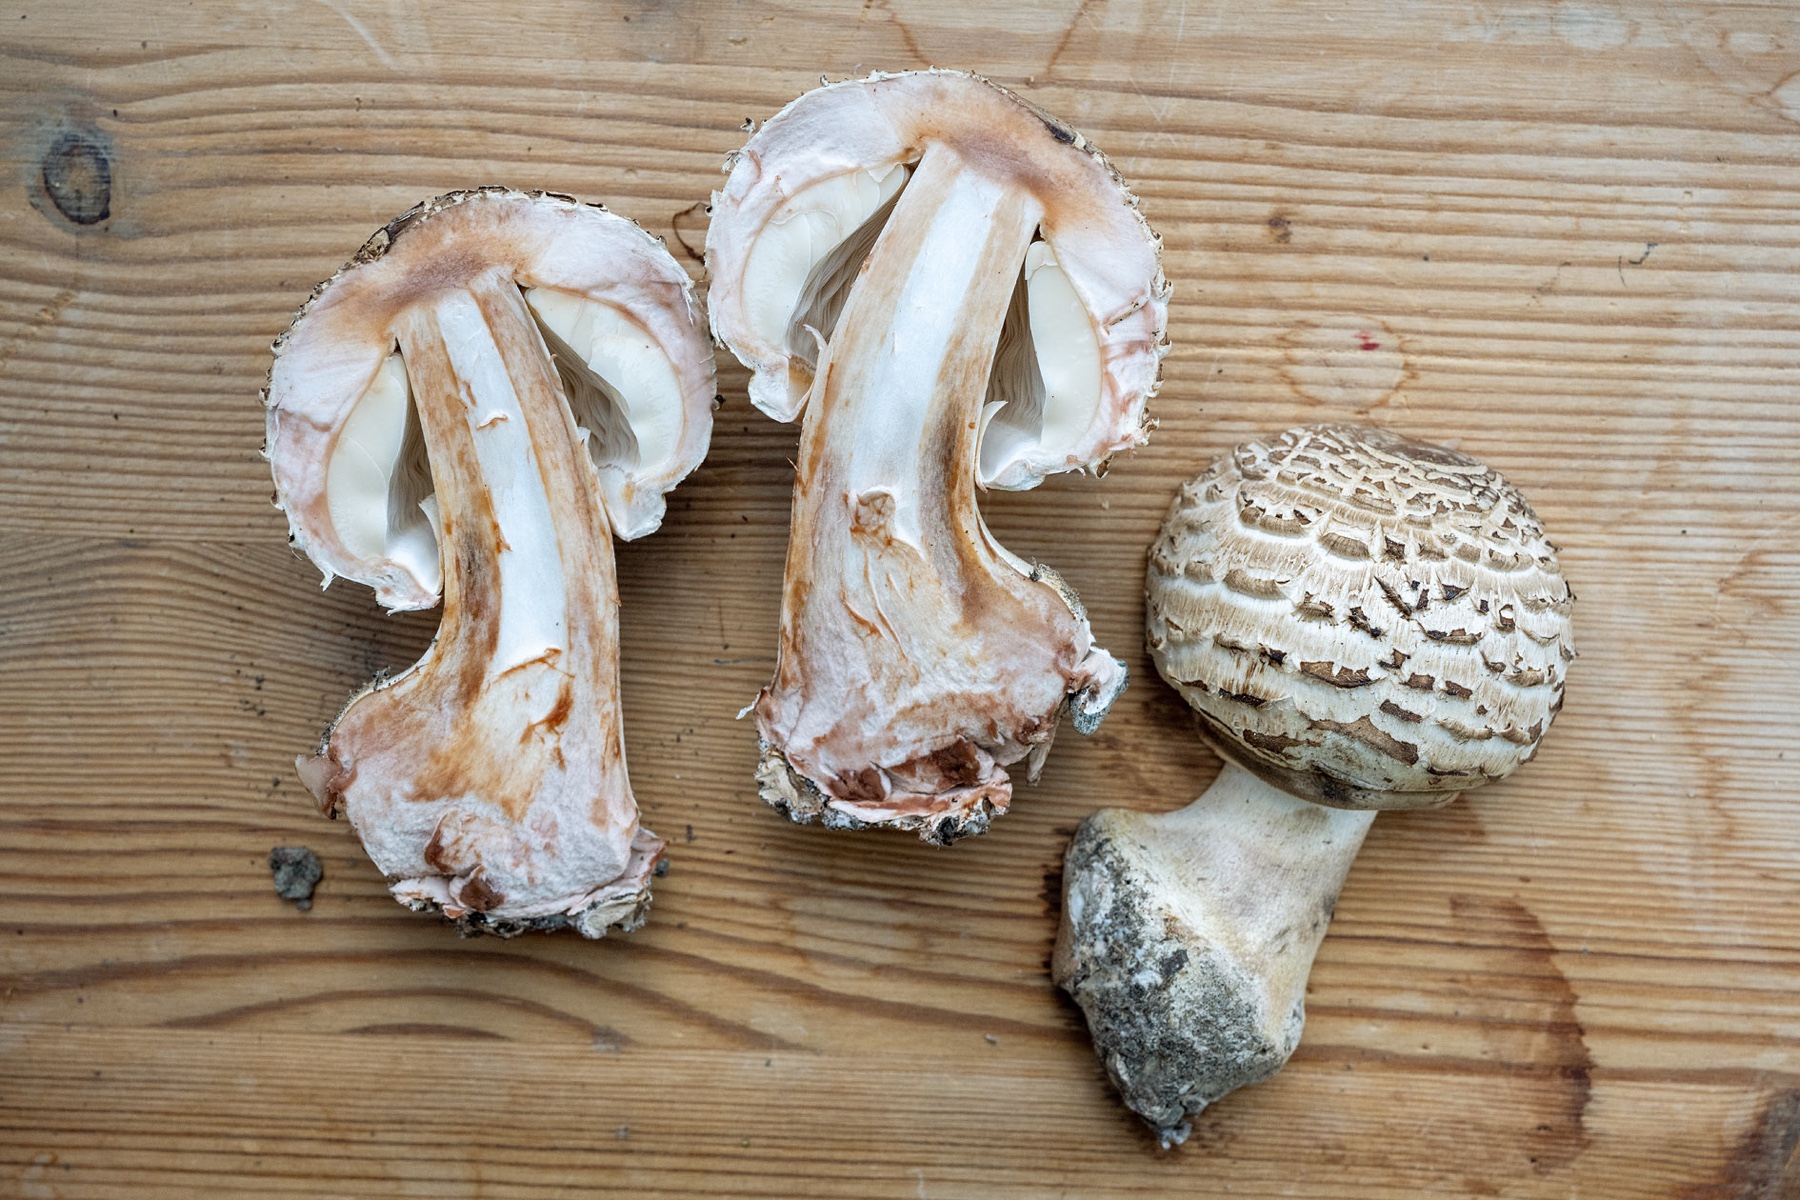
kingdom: Fungi
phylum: Basidiomycota
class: Agaricomycetes
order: Agaricales
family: Agaricaceae
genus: Chlorophyllum
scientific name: Chlorophyllum brunneum
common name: giftig rabarberhat
